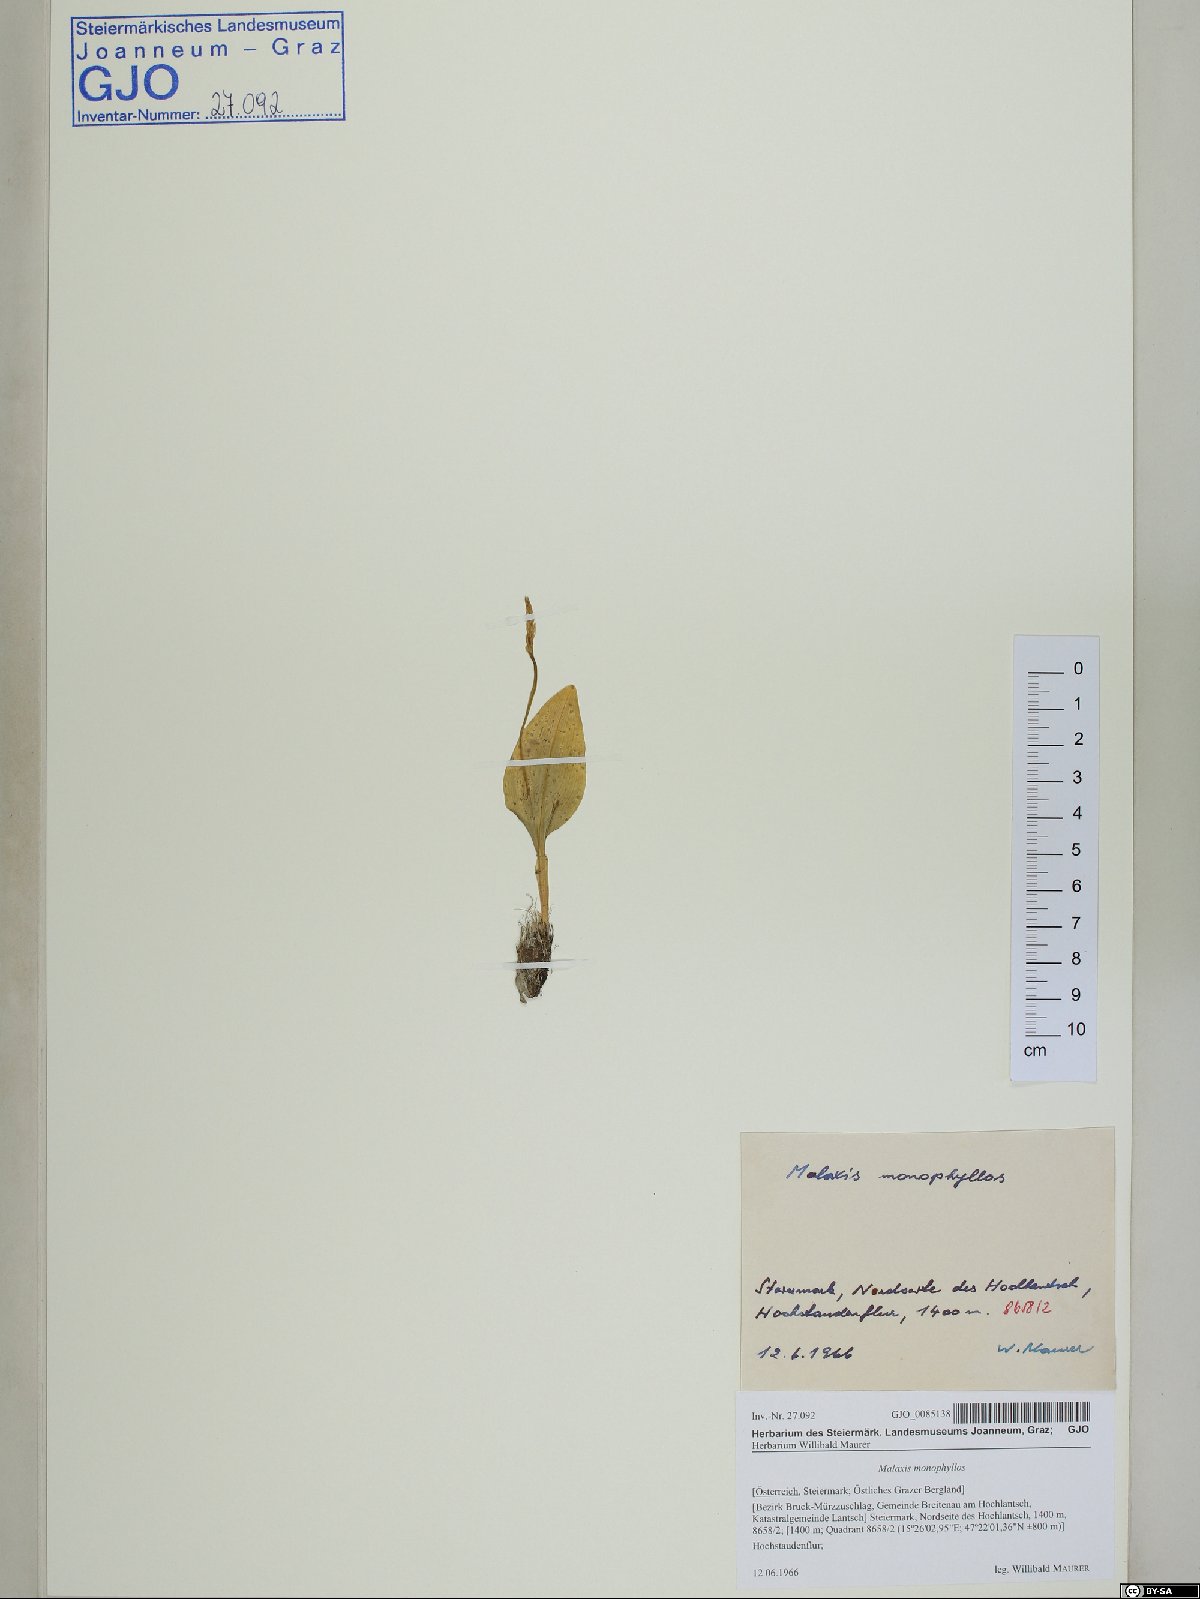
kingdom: Plantae
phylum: Tracheophyta
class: Liliopsida
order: Asparagales
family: Orchidaceae
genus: Malaxis
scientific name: Malaxis monophyllos
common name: White adder's-mouth
